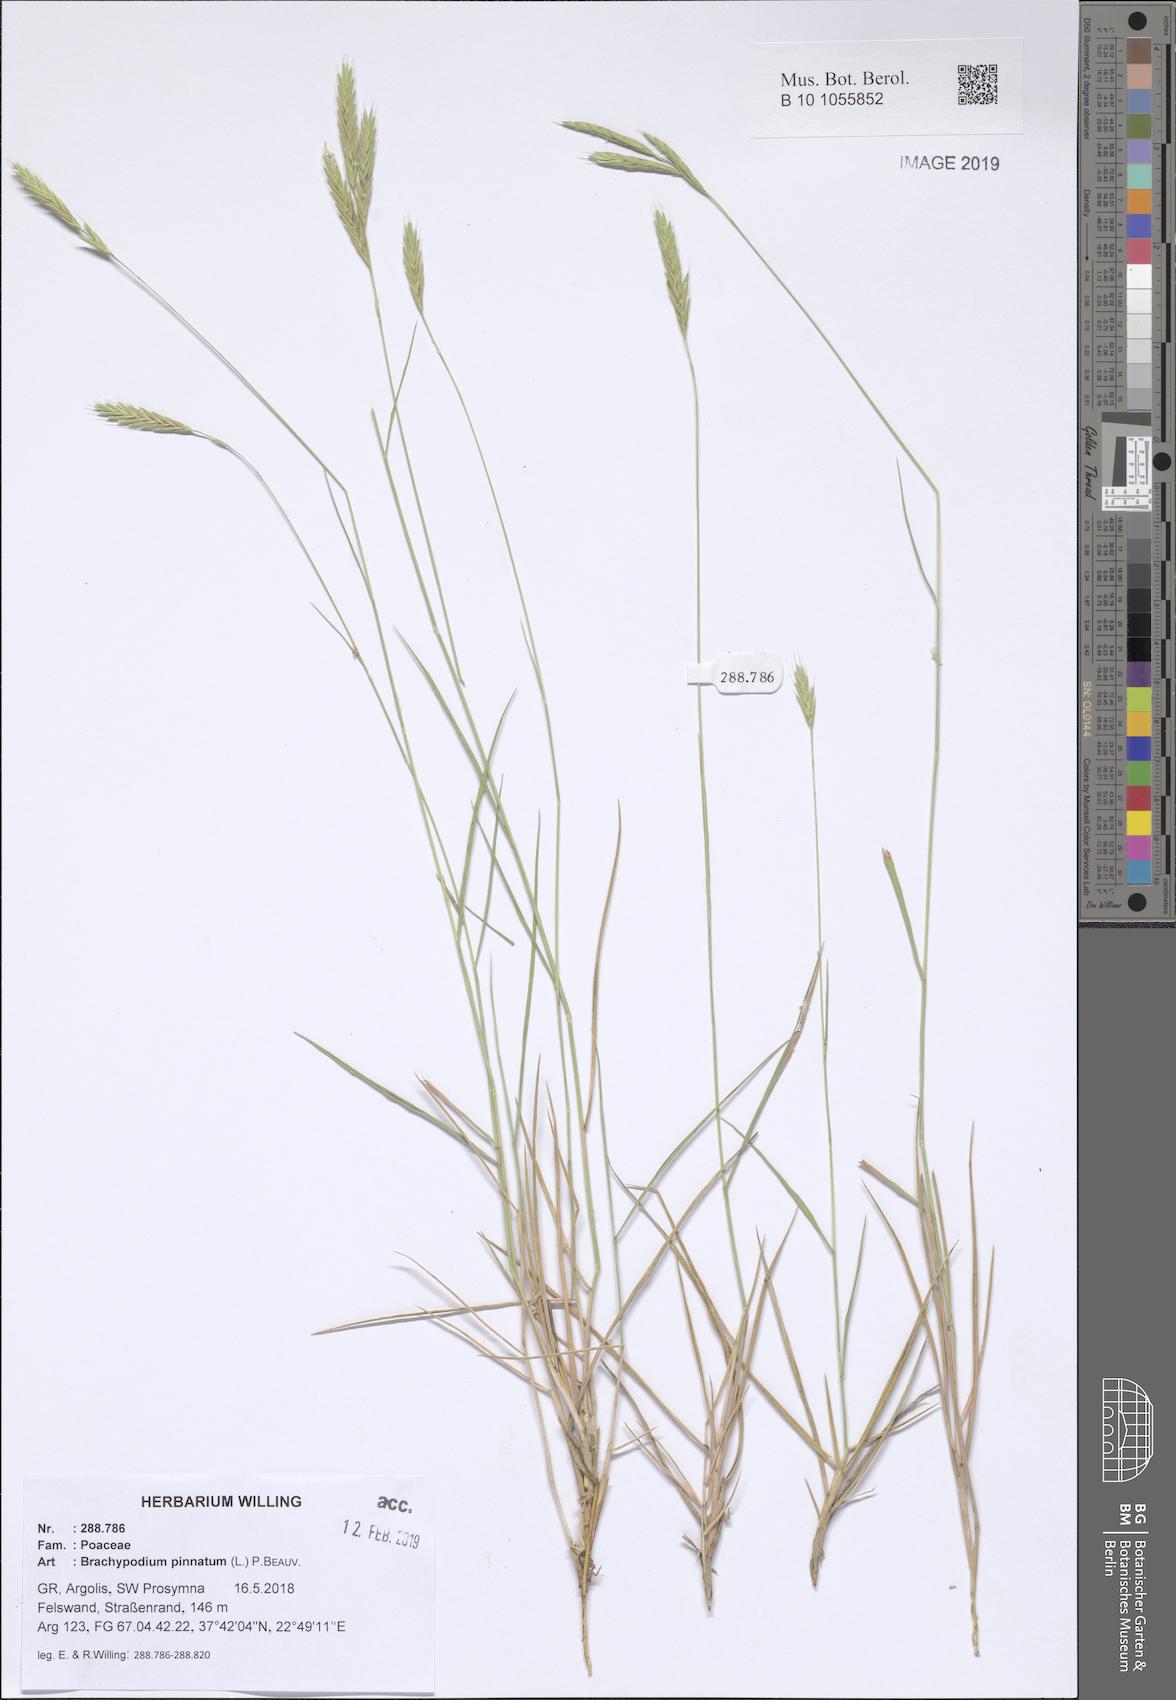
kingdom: Plantae
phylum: Tracheophyta
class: Liliopsida
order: Poales
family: Poaceae
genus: Brachypodium
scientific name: Brachypodium pinnatum
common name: Tor grass
